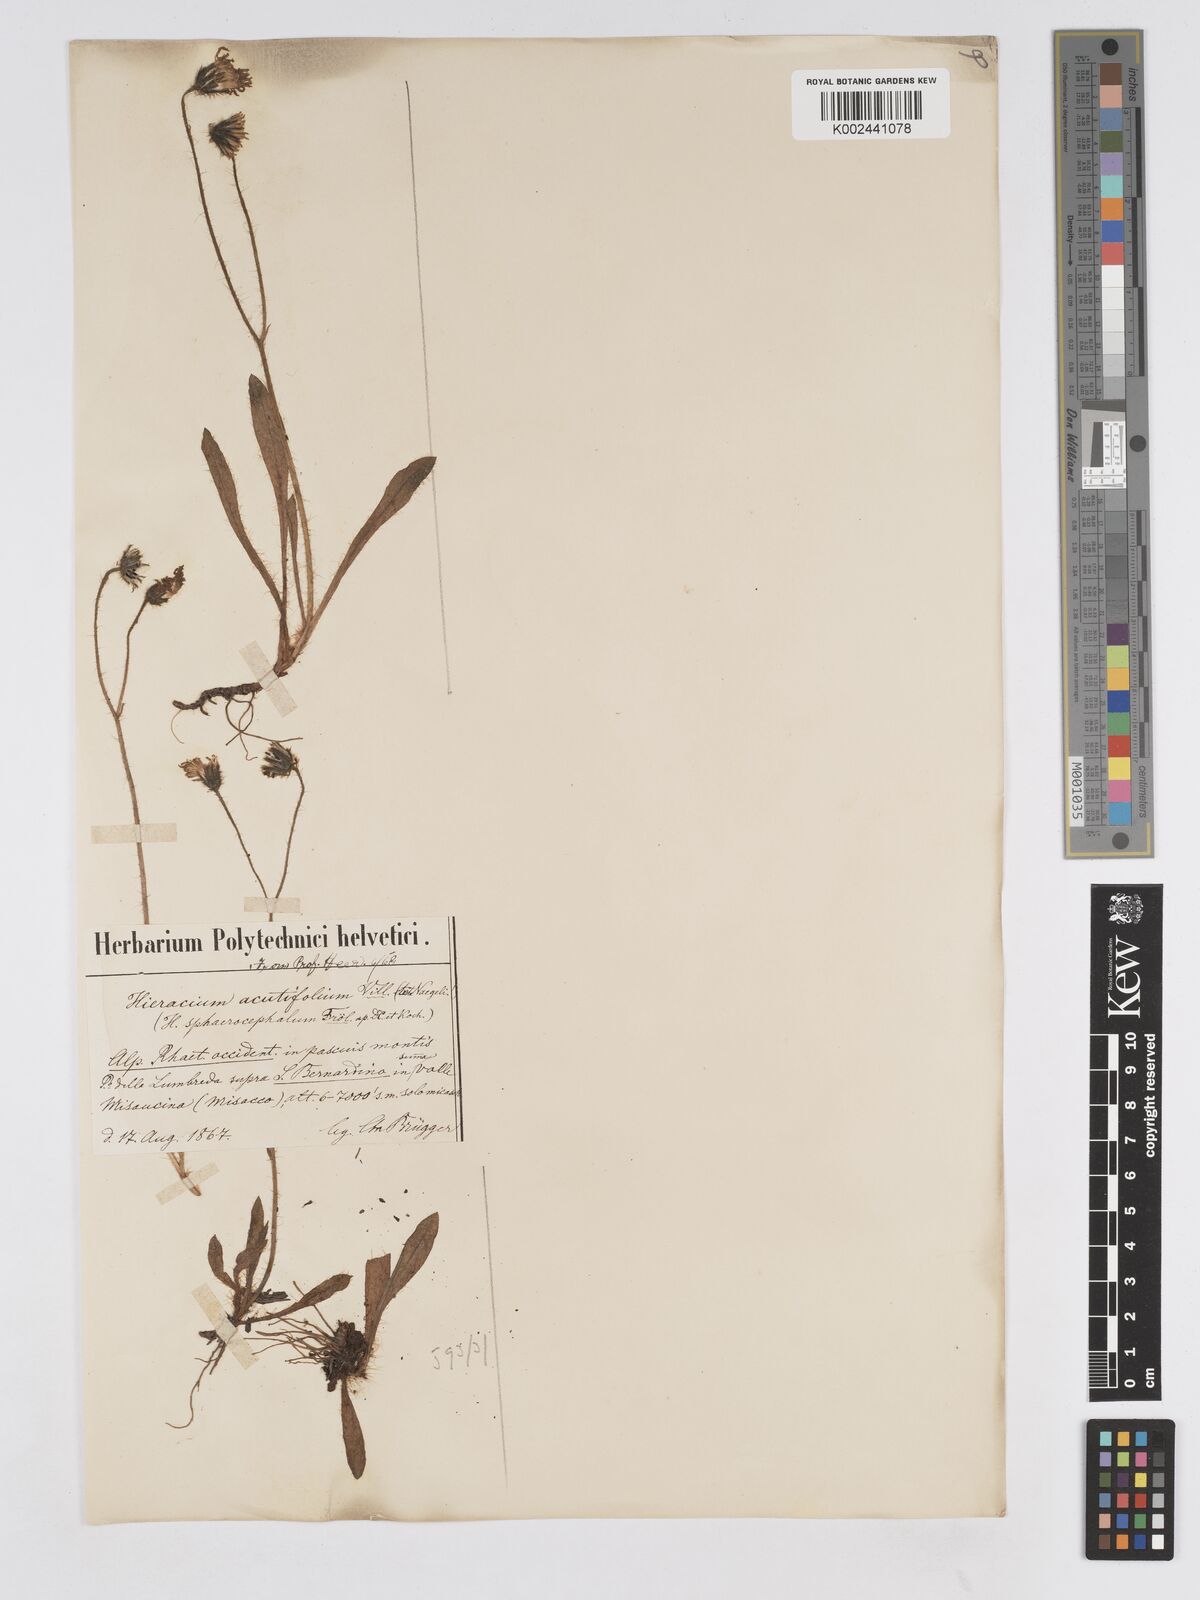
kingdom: Plantae
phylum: Tracheophyta
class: Magnoliopsida
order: Asterales
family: Asteraceae
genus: Pilosella
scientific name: Pilosella sphaerocephala
